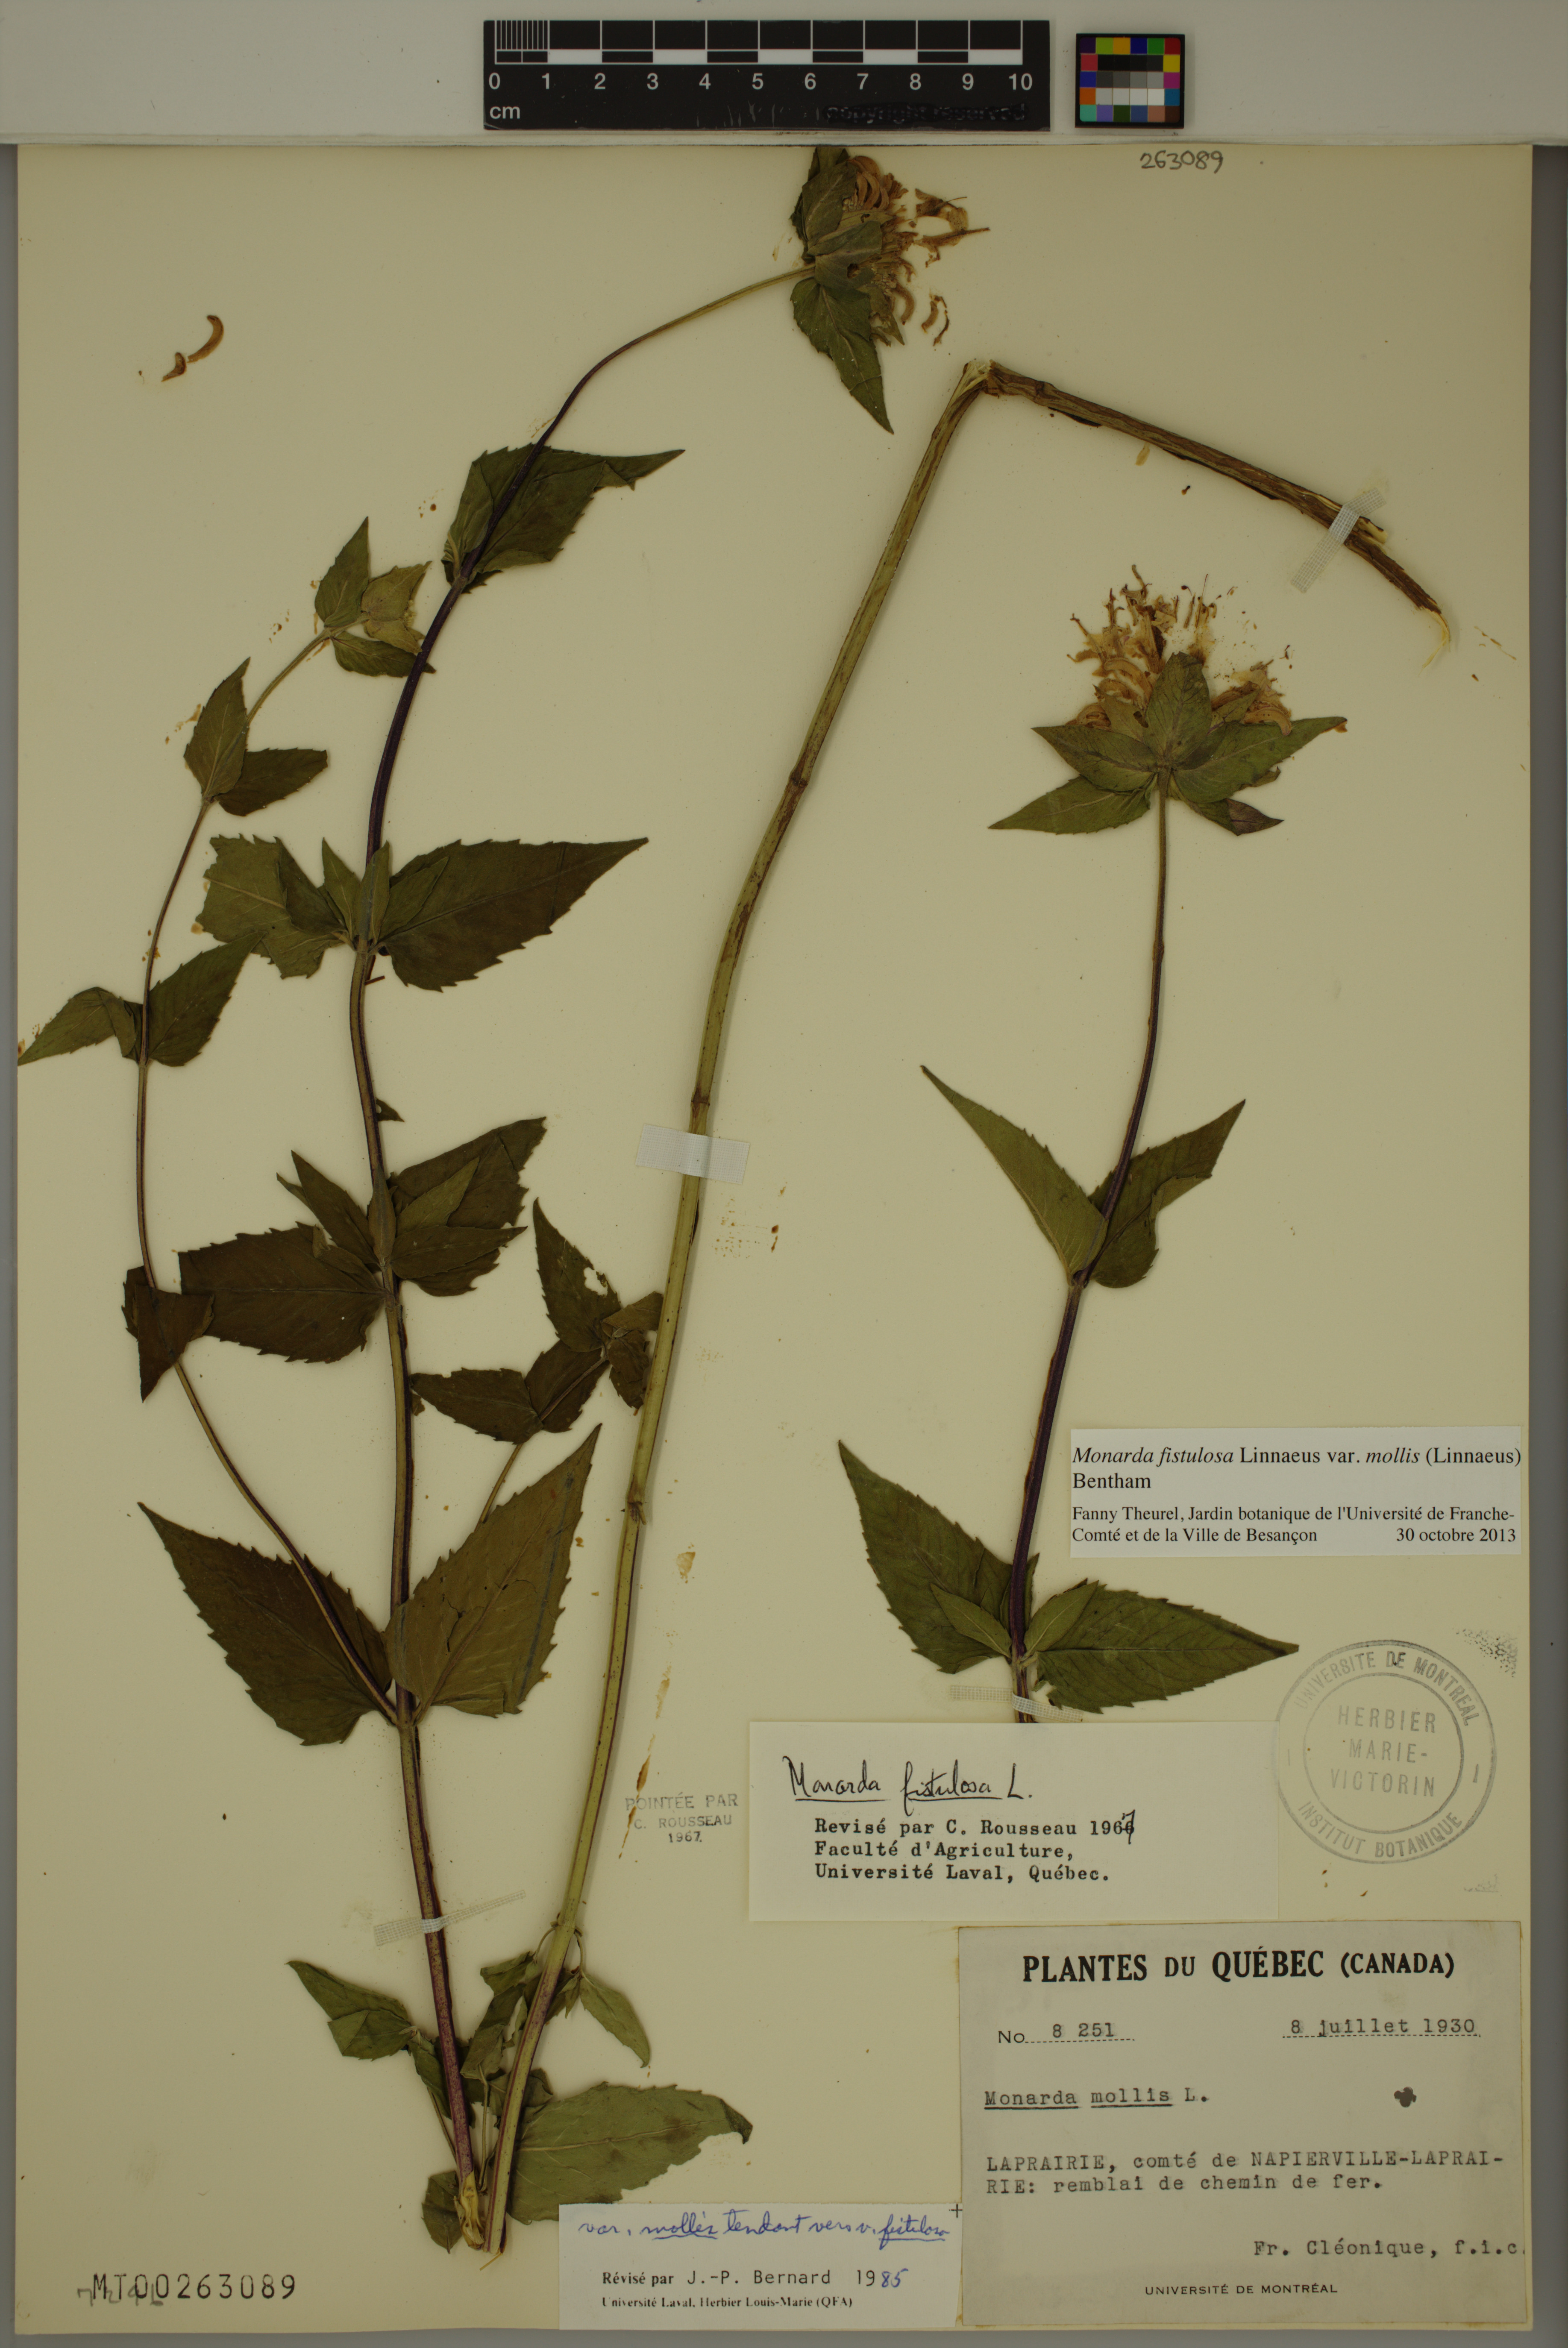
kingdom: Plantae
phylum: Tracheophyta
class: Magnoliopsida
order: Lamiales
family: Lamiaceae
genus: Monarda
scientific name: Monarda fistulosa
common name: Purple beebalm
